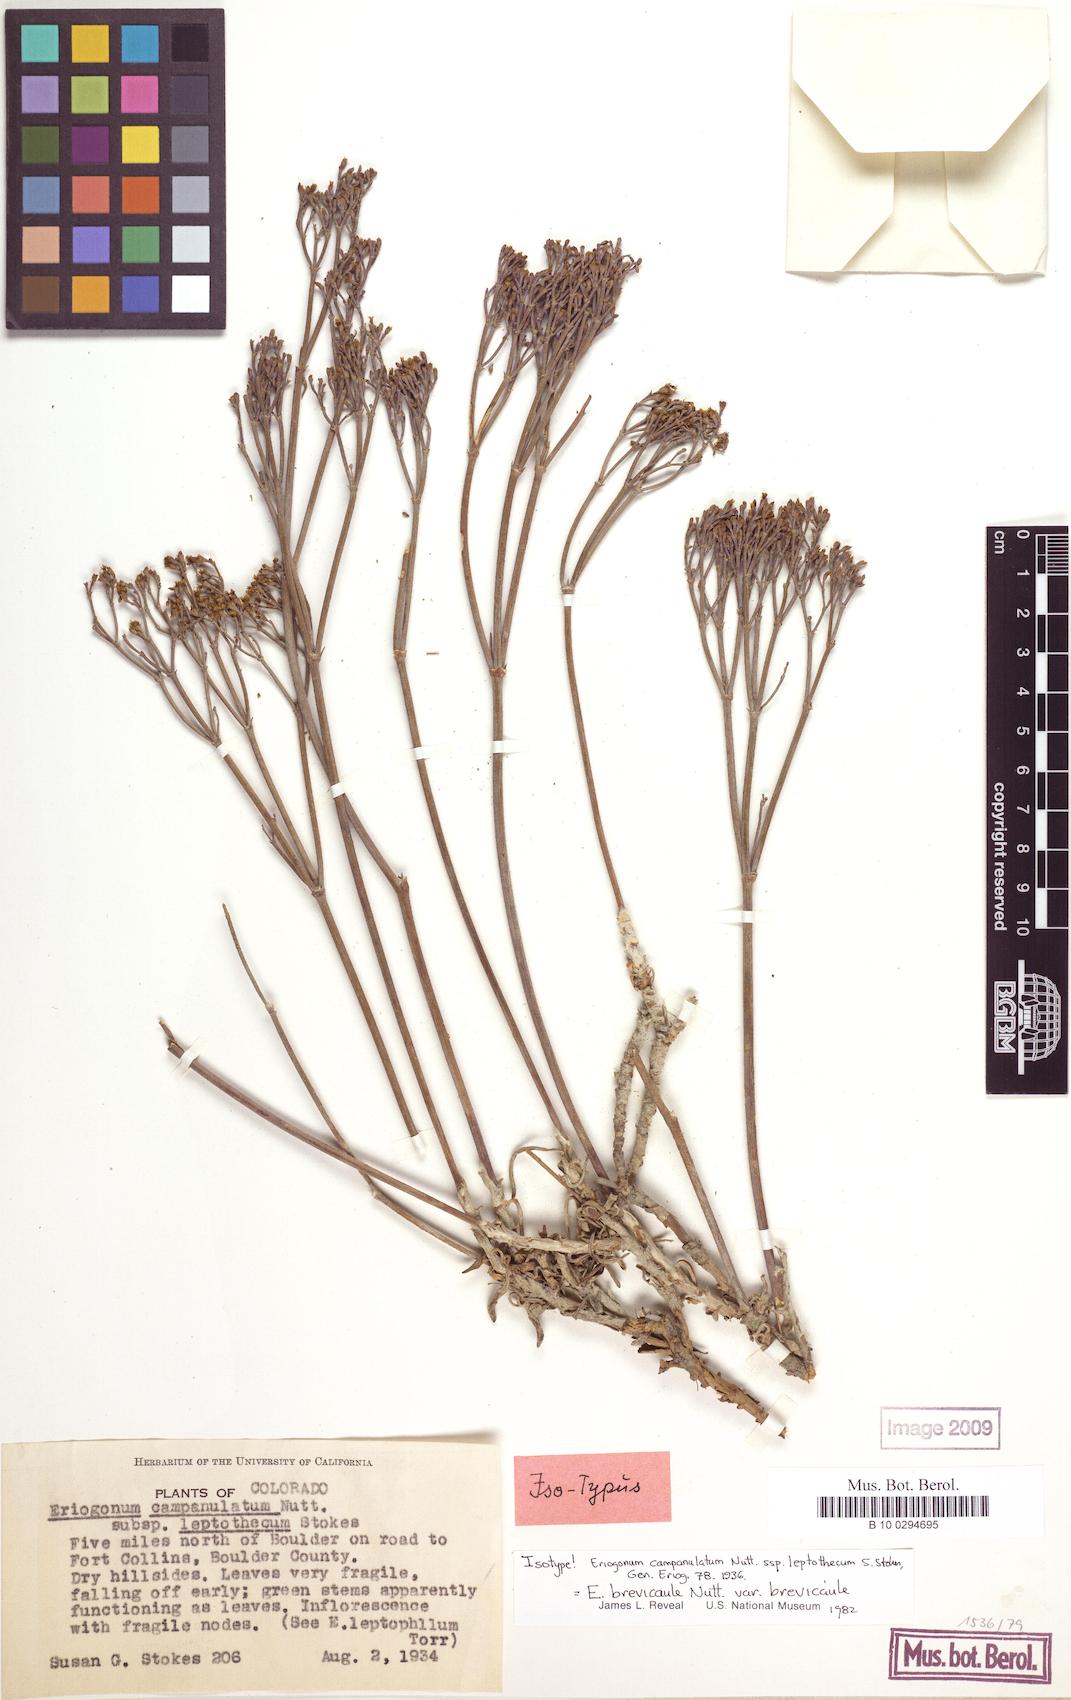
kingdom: Plantae
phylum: Tracheophyta
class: Magnoliopsida
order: Caryophyllales
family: Polygonaceae
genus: Eriogonum
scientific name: Eriogonum brevicaule
